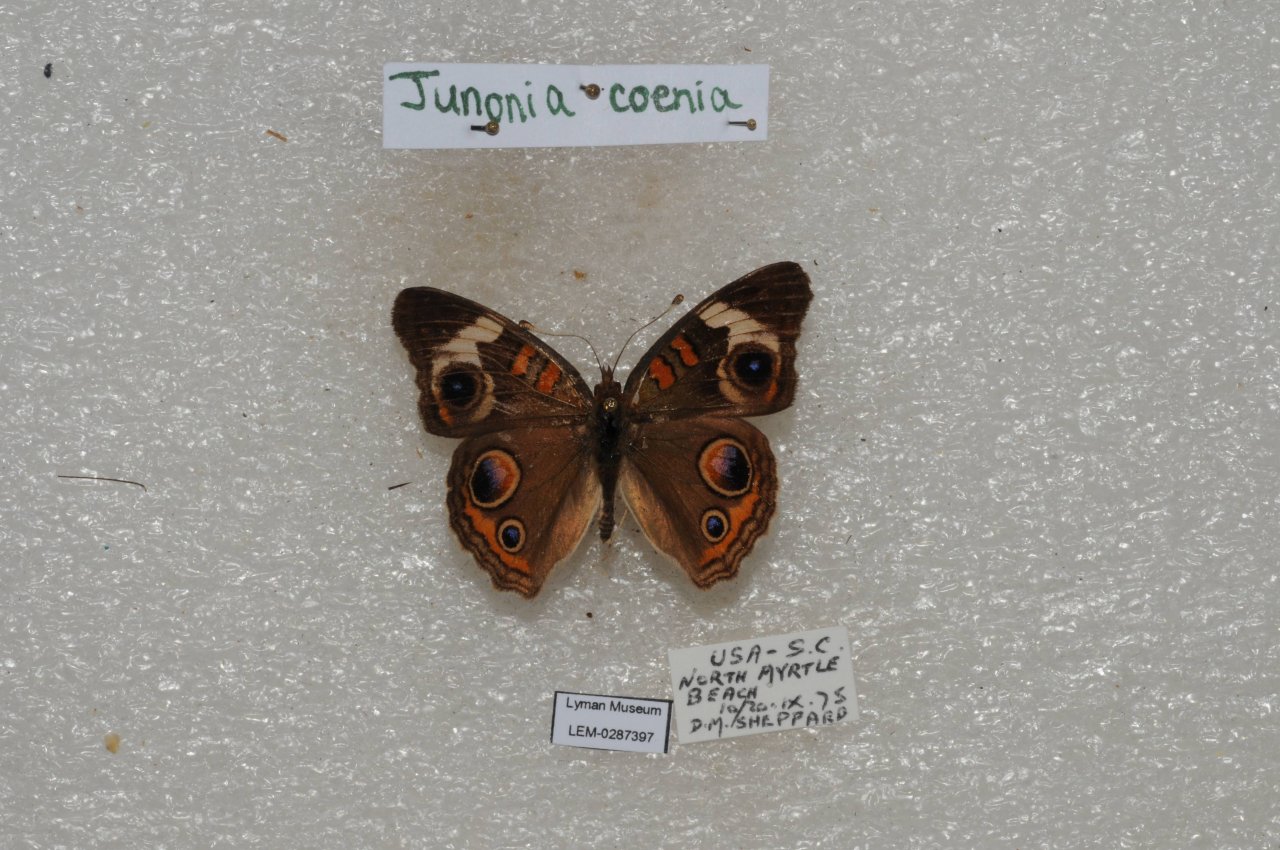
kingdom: Animalia
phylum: Arthropoda
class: Insecta
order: Lepidoptera
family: Nymphalidae
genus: Junonia
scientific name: Junonia coenia
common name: Common Buckeye
